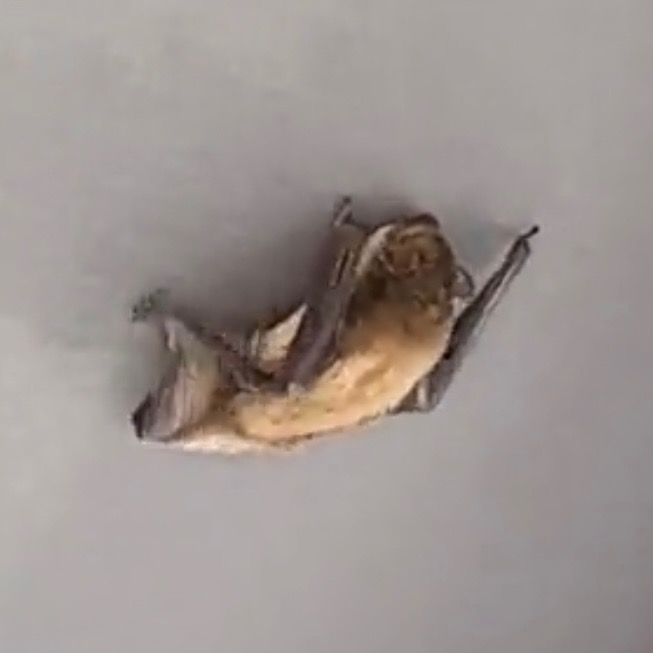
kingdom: Animalia
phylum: Chordata
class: Mammalia
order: Chiroptera
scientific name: Chiroptera
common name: Flagermus
